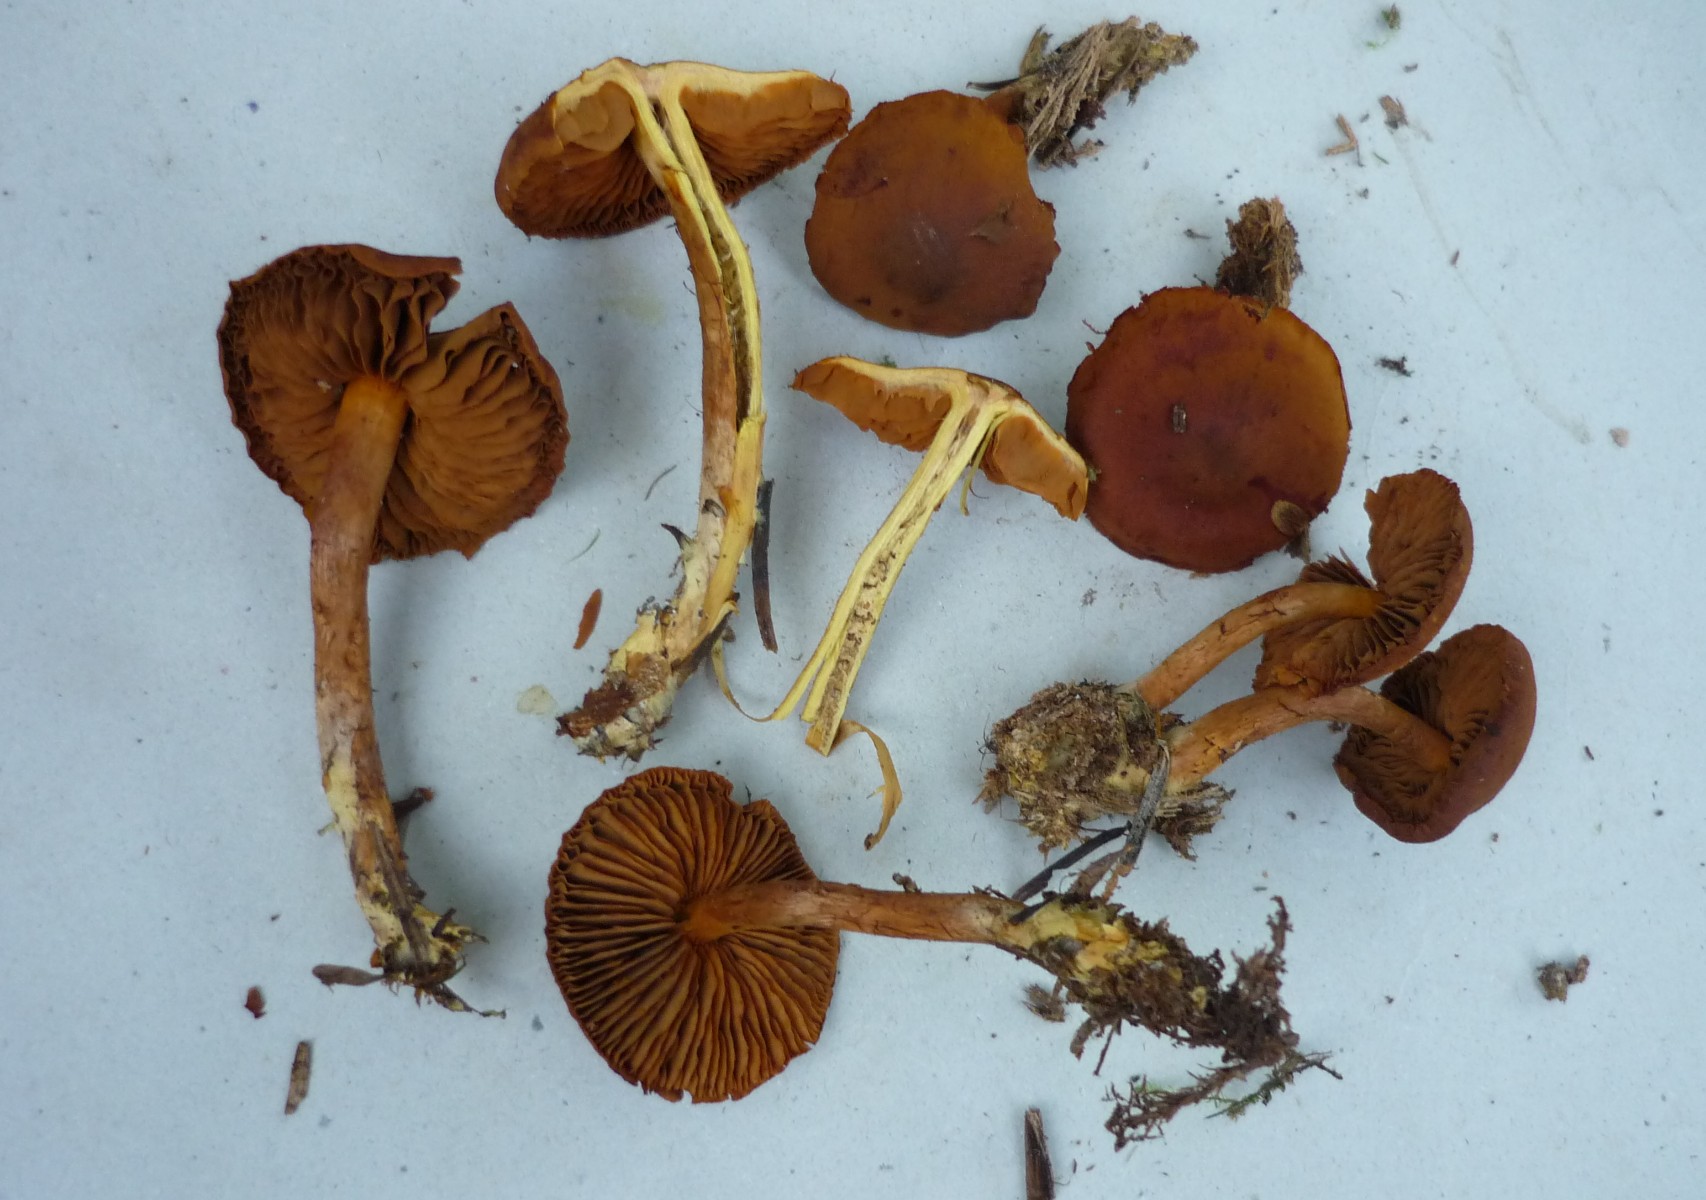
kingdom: Fungi
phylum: Basidiomycota
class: Agaricomycetes
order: Agaricales
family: Cortinariaceae
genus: Cortinarius
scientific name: Cortinarius
